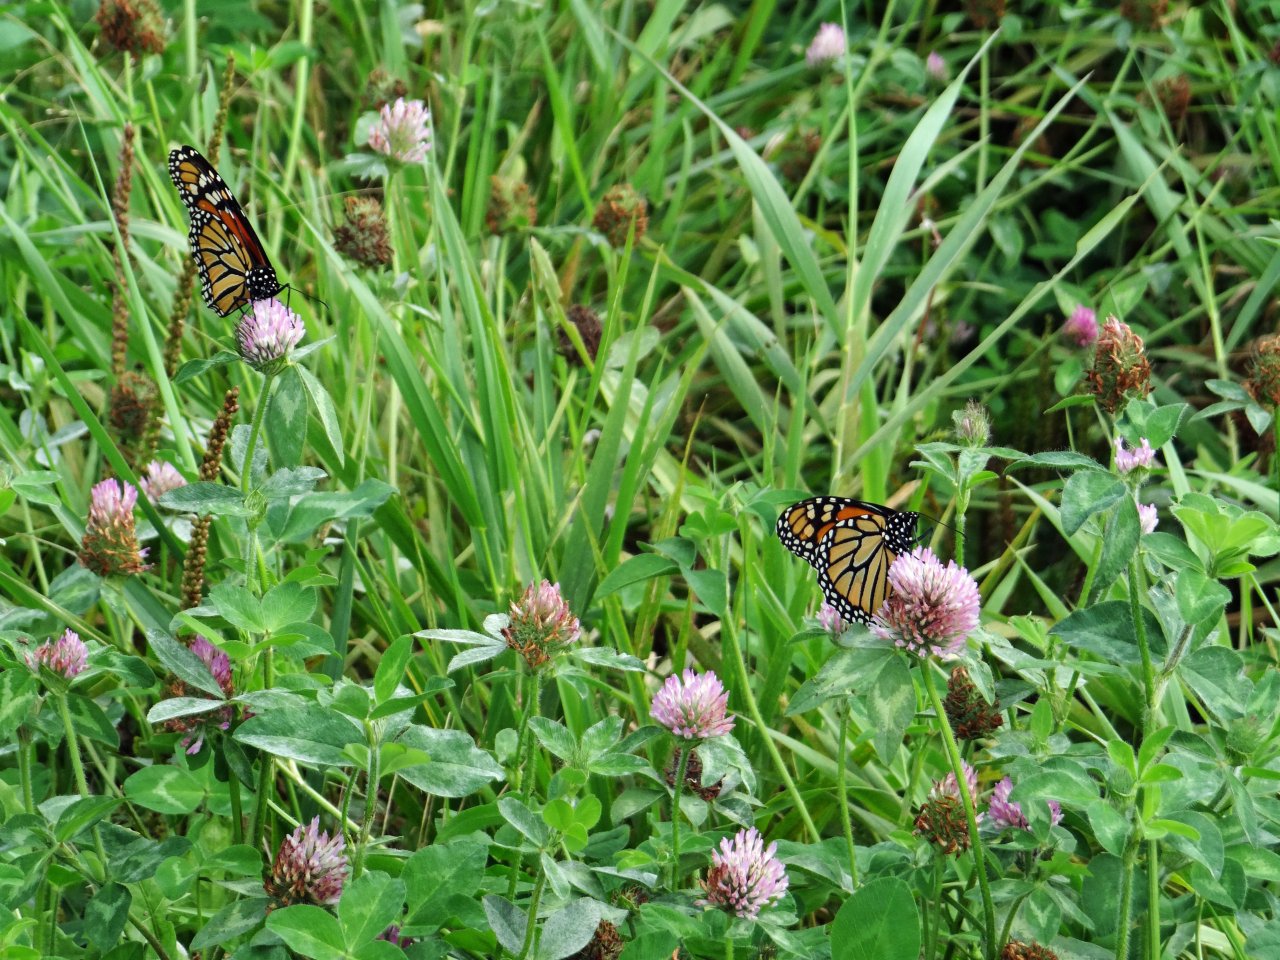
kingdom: Animalia
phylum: Arthropoda
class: Insecta
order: Lepidoptera
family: Nymphalidae
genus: Danaus
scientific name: Danaus plexippus
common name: Monarch
